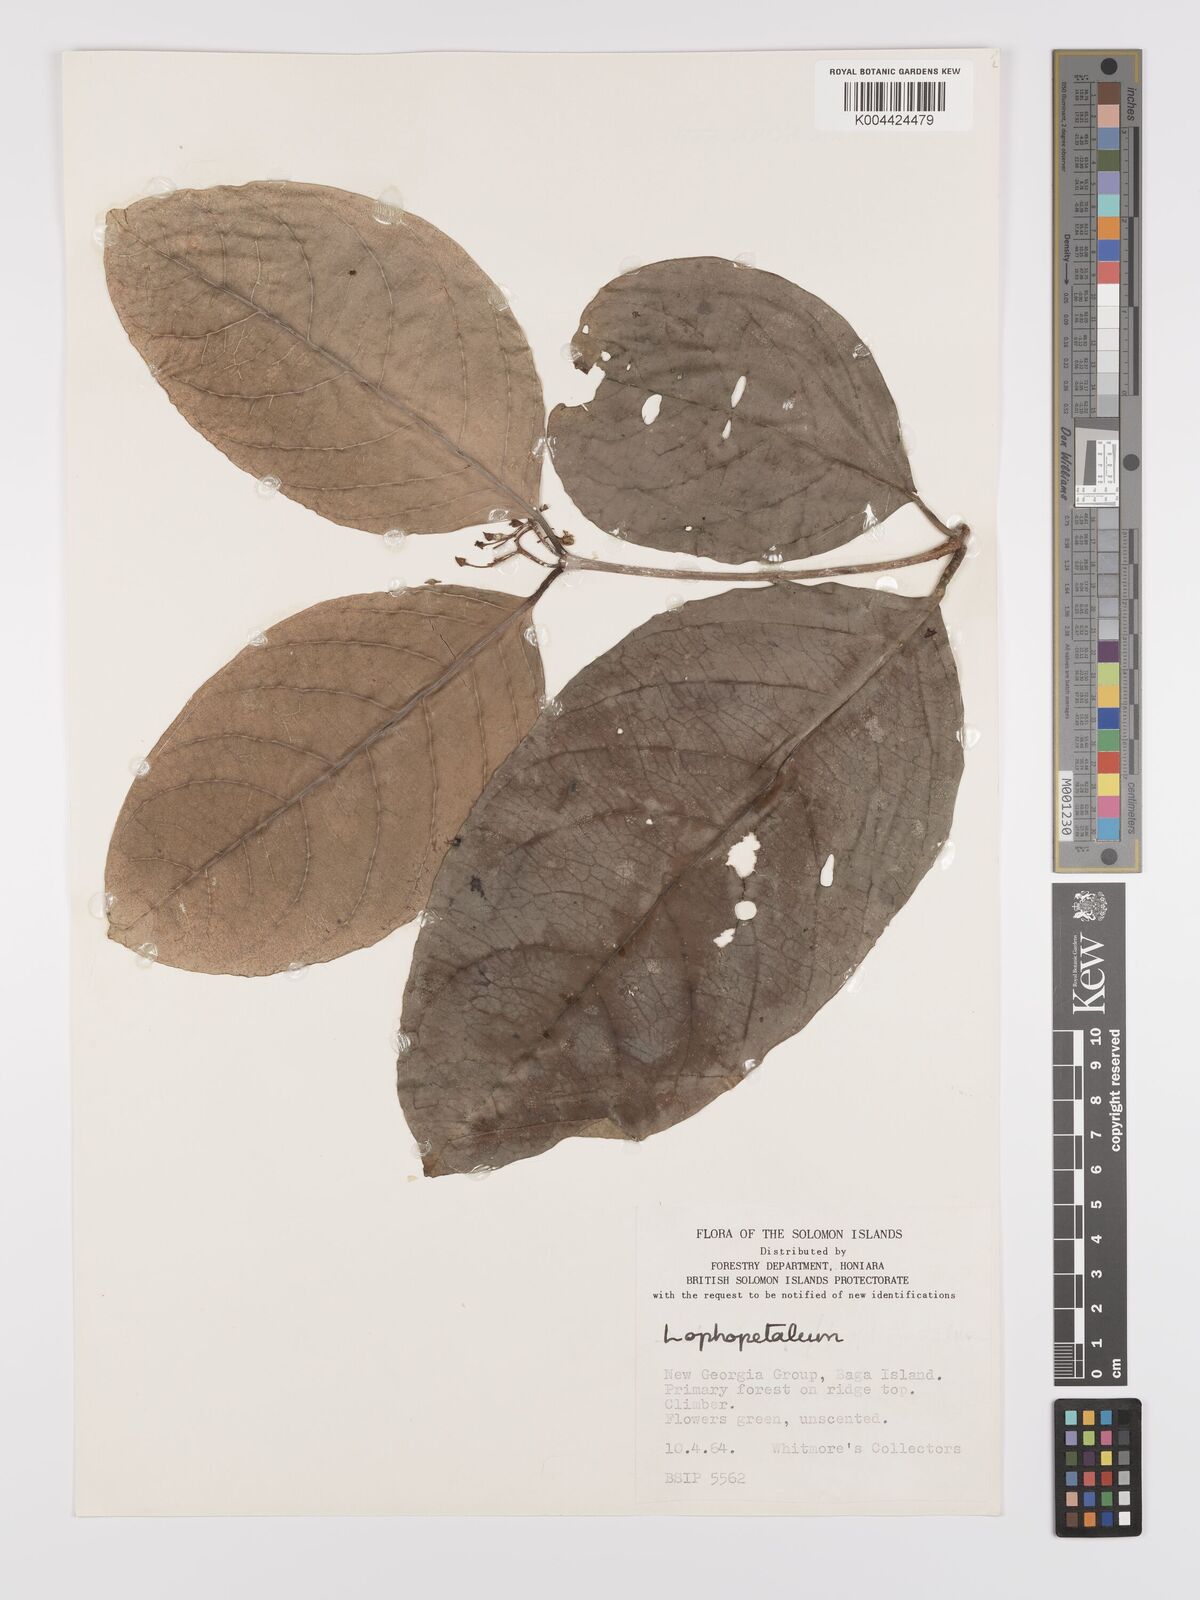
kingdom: Plantae
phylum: Tracheophyta
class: Magnoliopsida
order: Celastrales
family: Celastraceae
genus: Lophopetalum
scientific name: Lophopetalum
